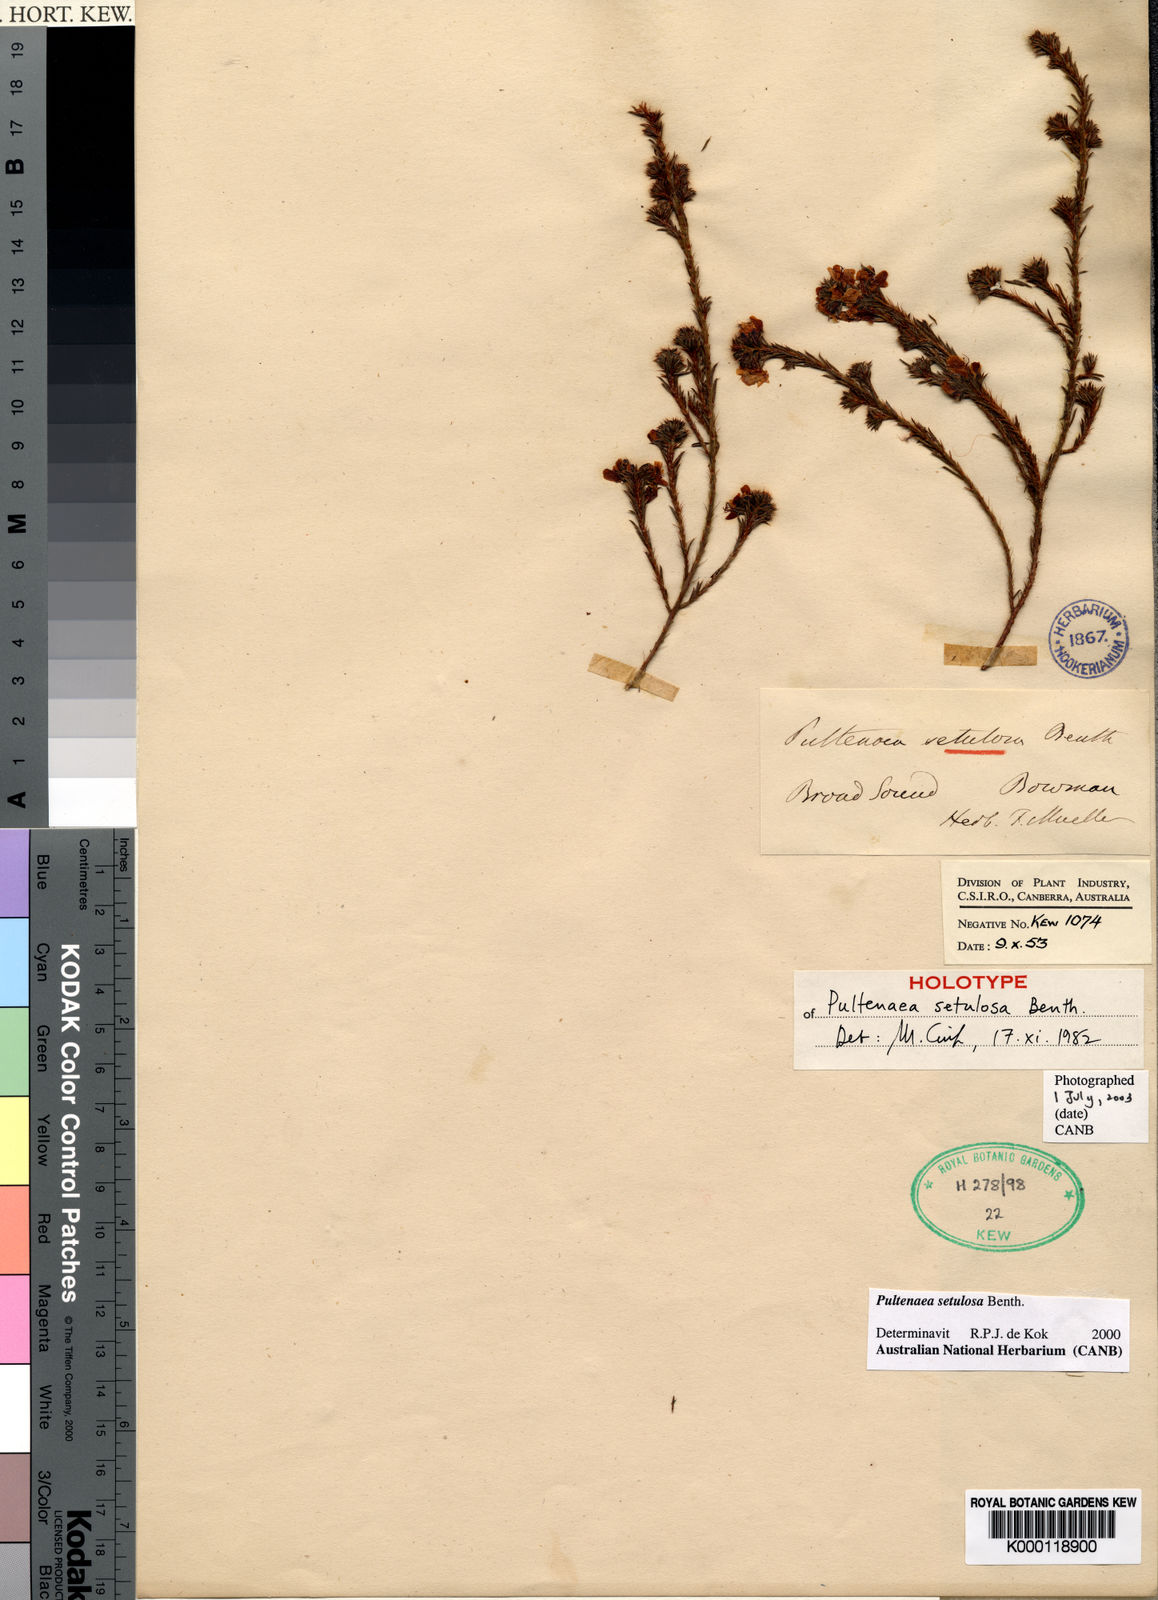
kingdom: Plantae
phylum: Tracheophyta
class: Magnoliopsida
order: Fabales
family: Fabaceae
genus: Pultenaea
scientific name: Pultenaea setulosa
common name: Boorman’s bush-pea
